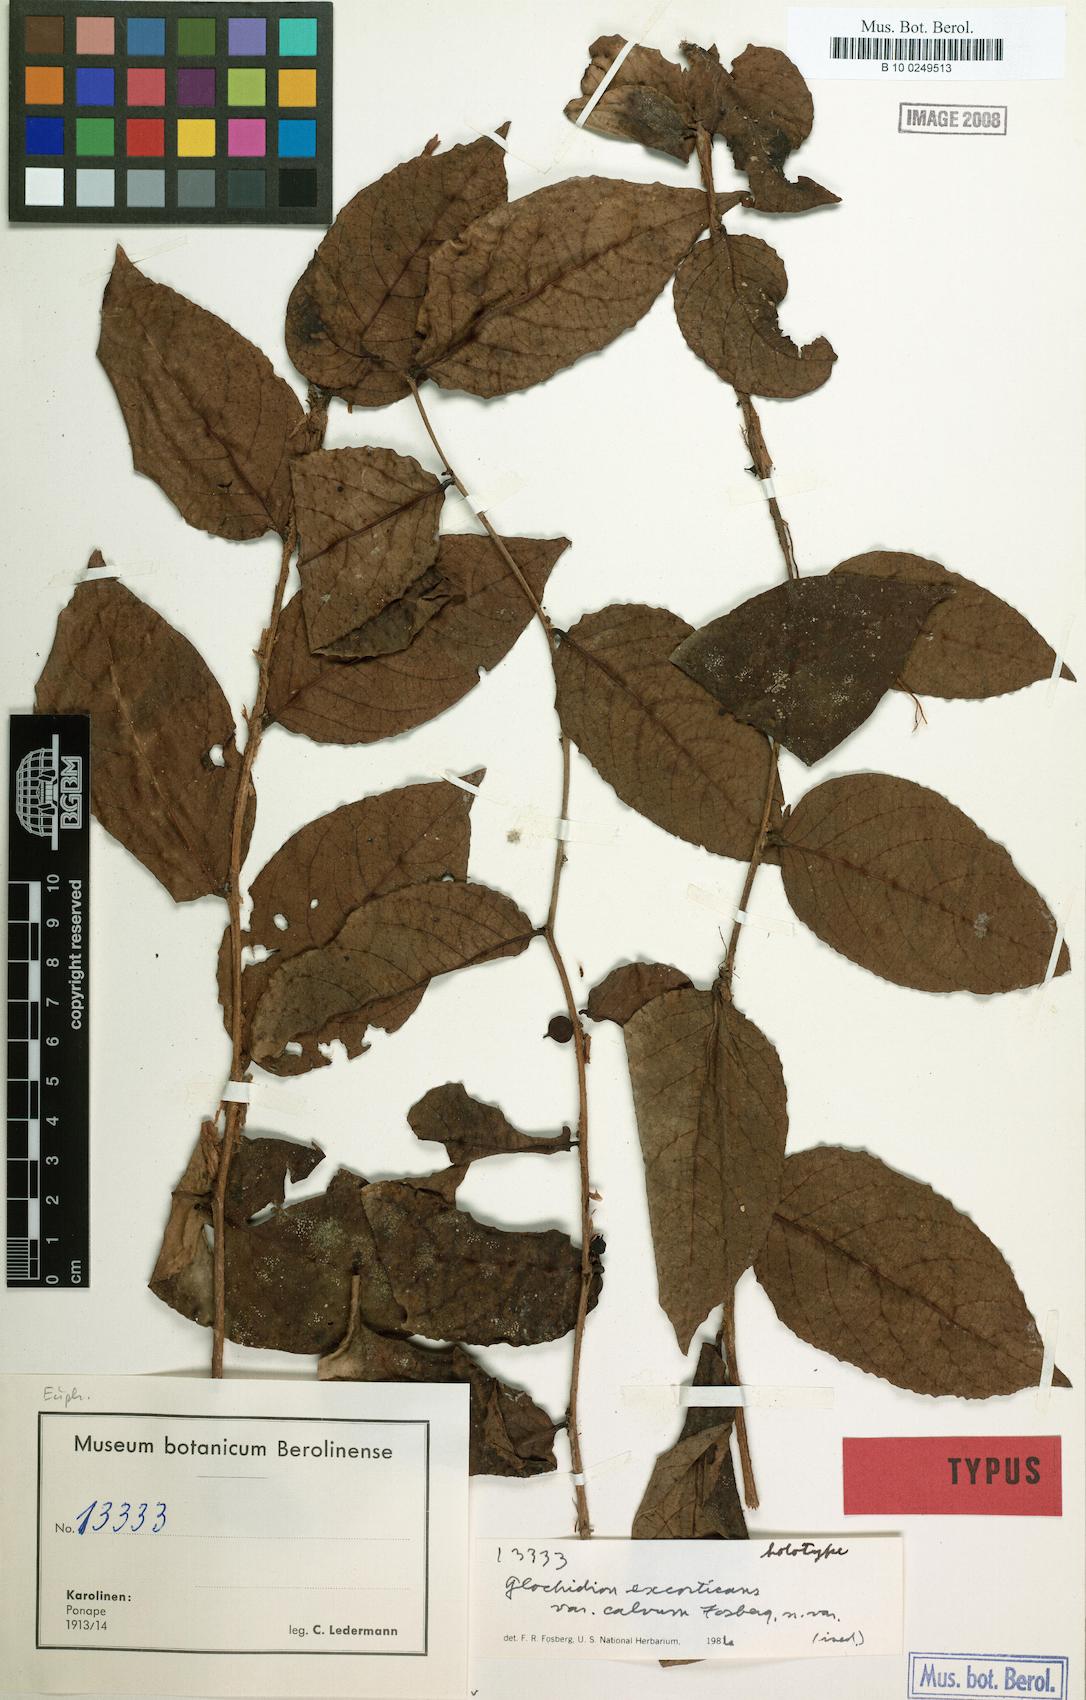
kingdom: Plantae
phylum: Tracheophyta
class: Magnoliopsida
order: Malpighiales
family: Phyllanthaceae
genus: Glochidion
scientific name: Glochidion ponapense
